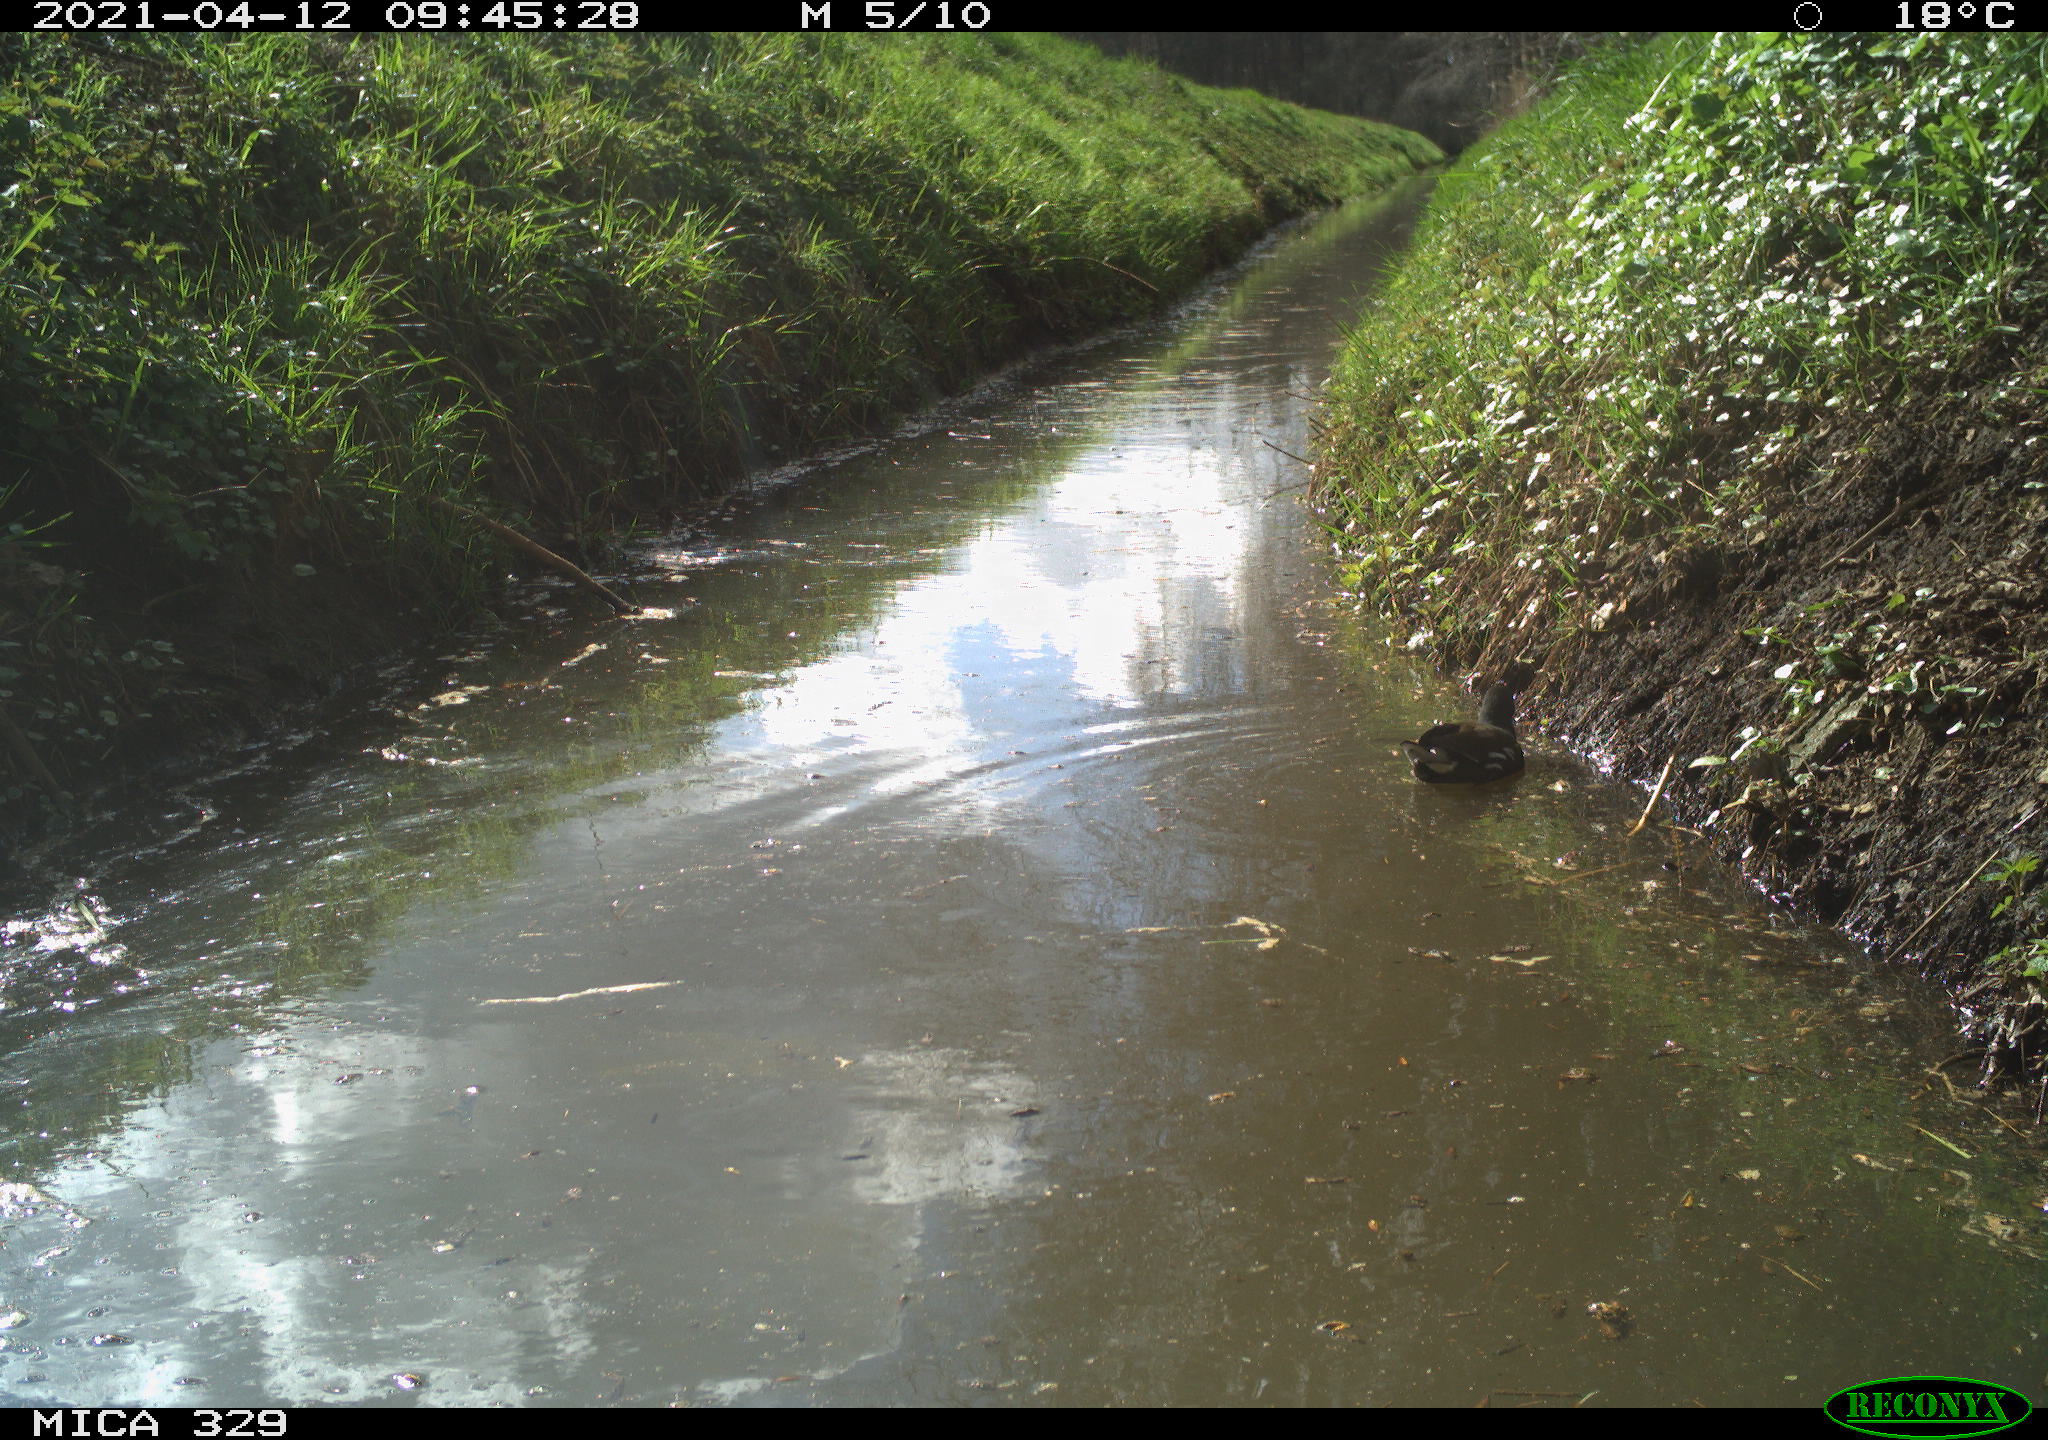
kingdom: Animalia
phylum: Chordata
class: Aves
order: Gruiformes
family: Rallidae
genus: Gallinula
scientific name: Gallinula chloropus
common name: Common moorhen
